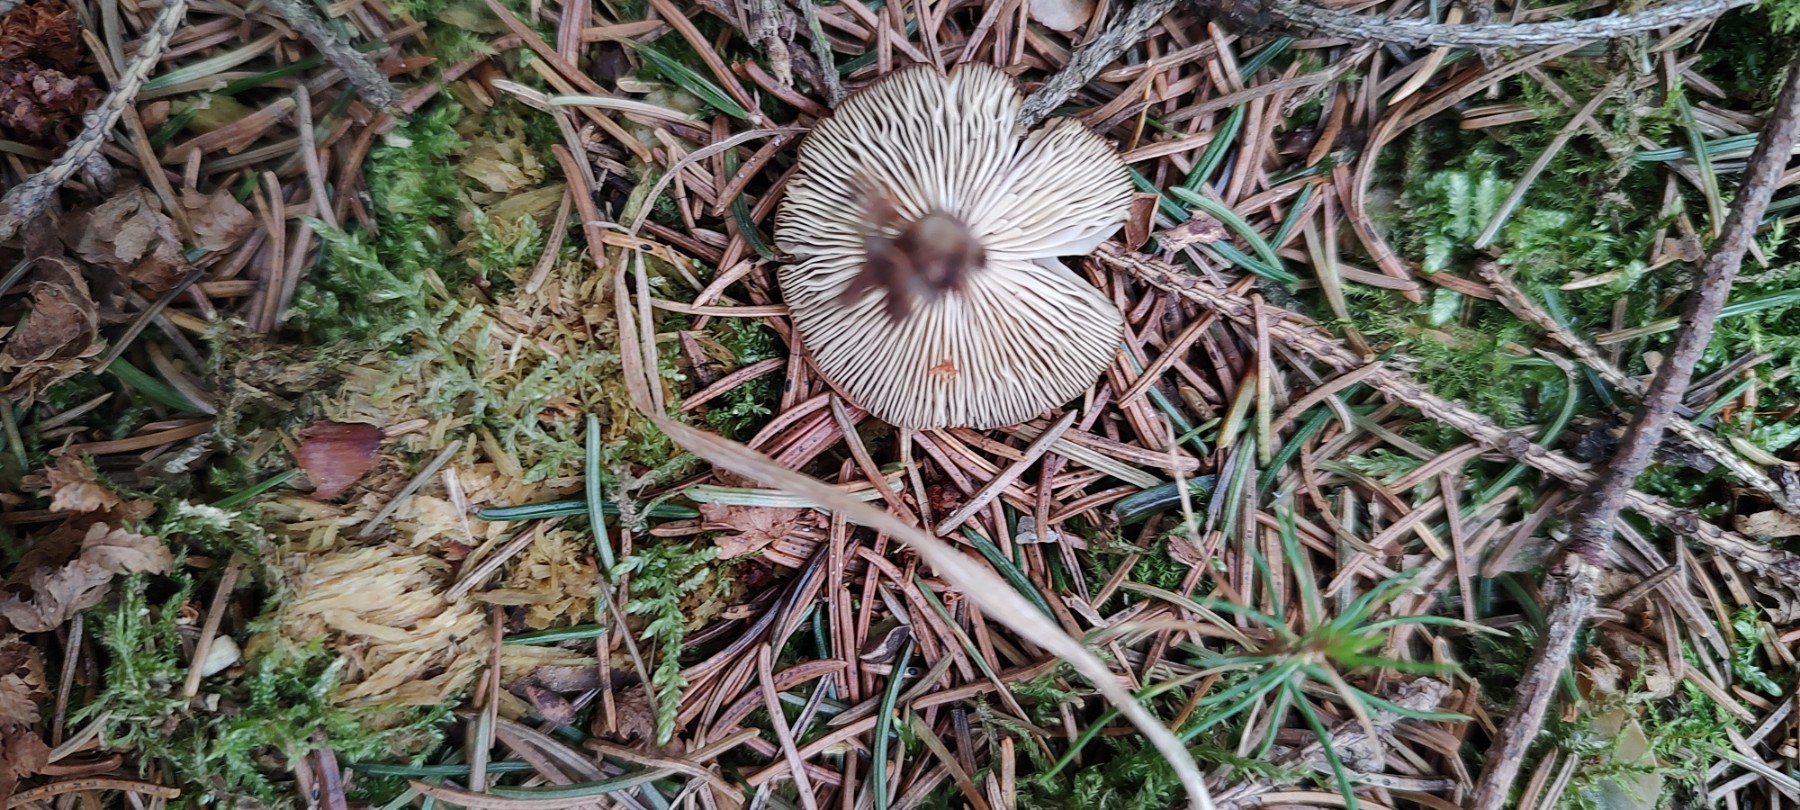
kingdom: Fungi
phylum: Basidiomycota
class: Agaricomycetes
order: Agaricales
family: Physalacriaceae
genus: Strobilurus
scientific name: Strobilurus stephanocystis
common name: fyrre-koglehat
